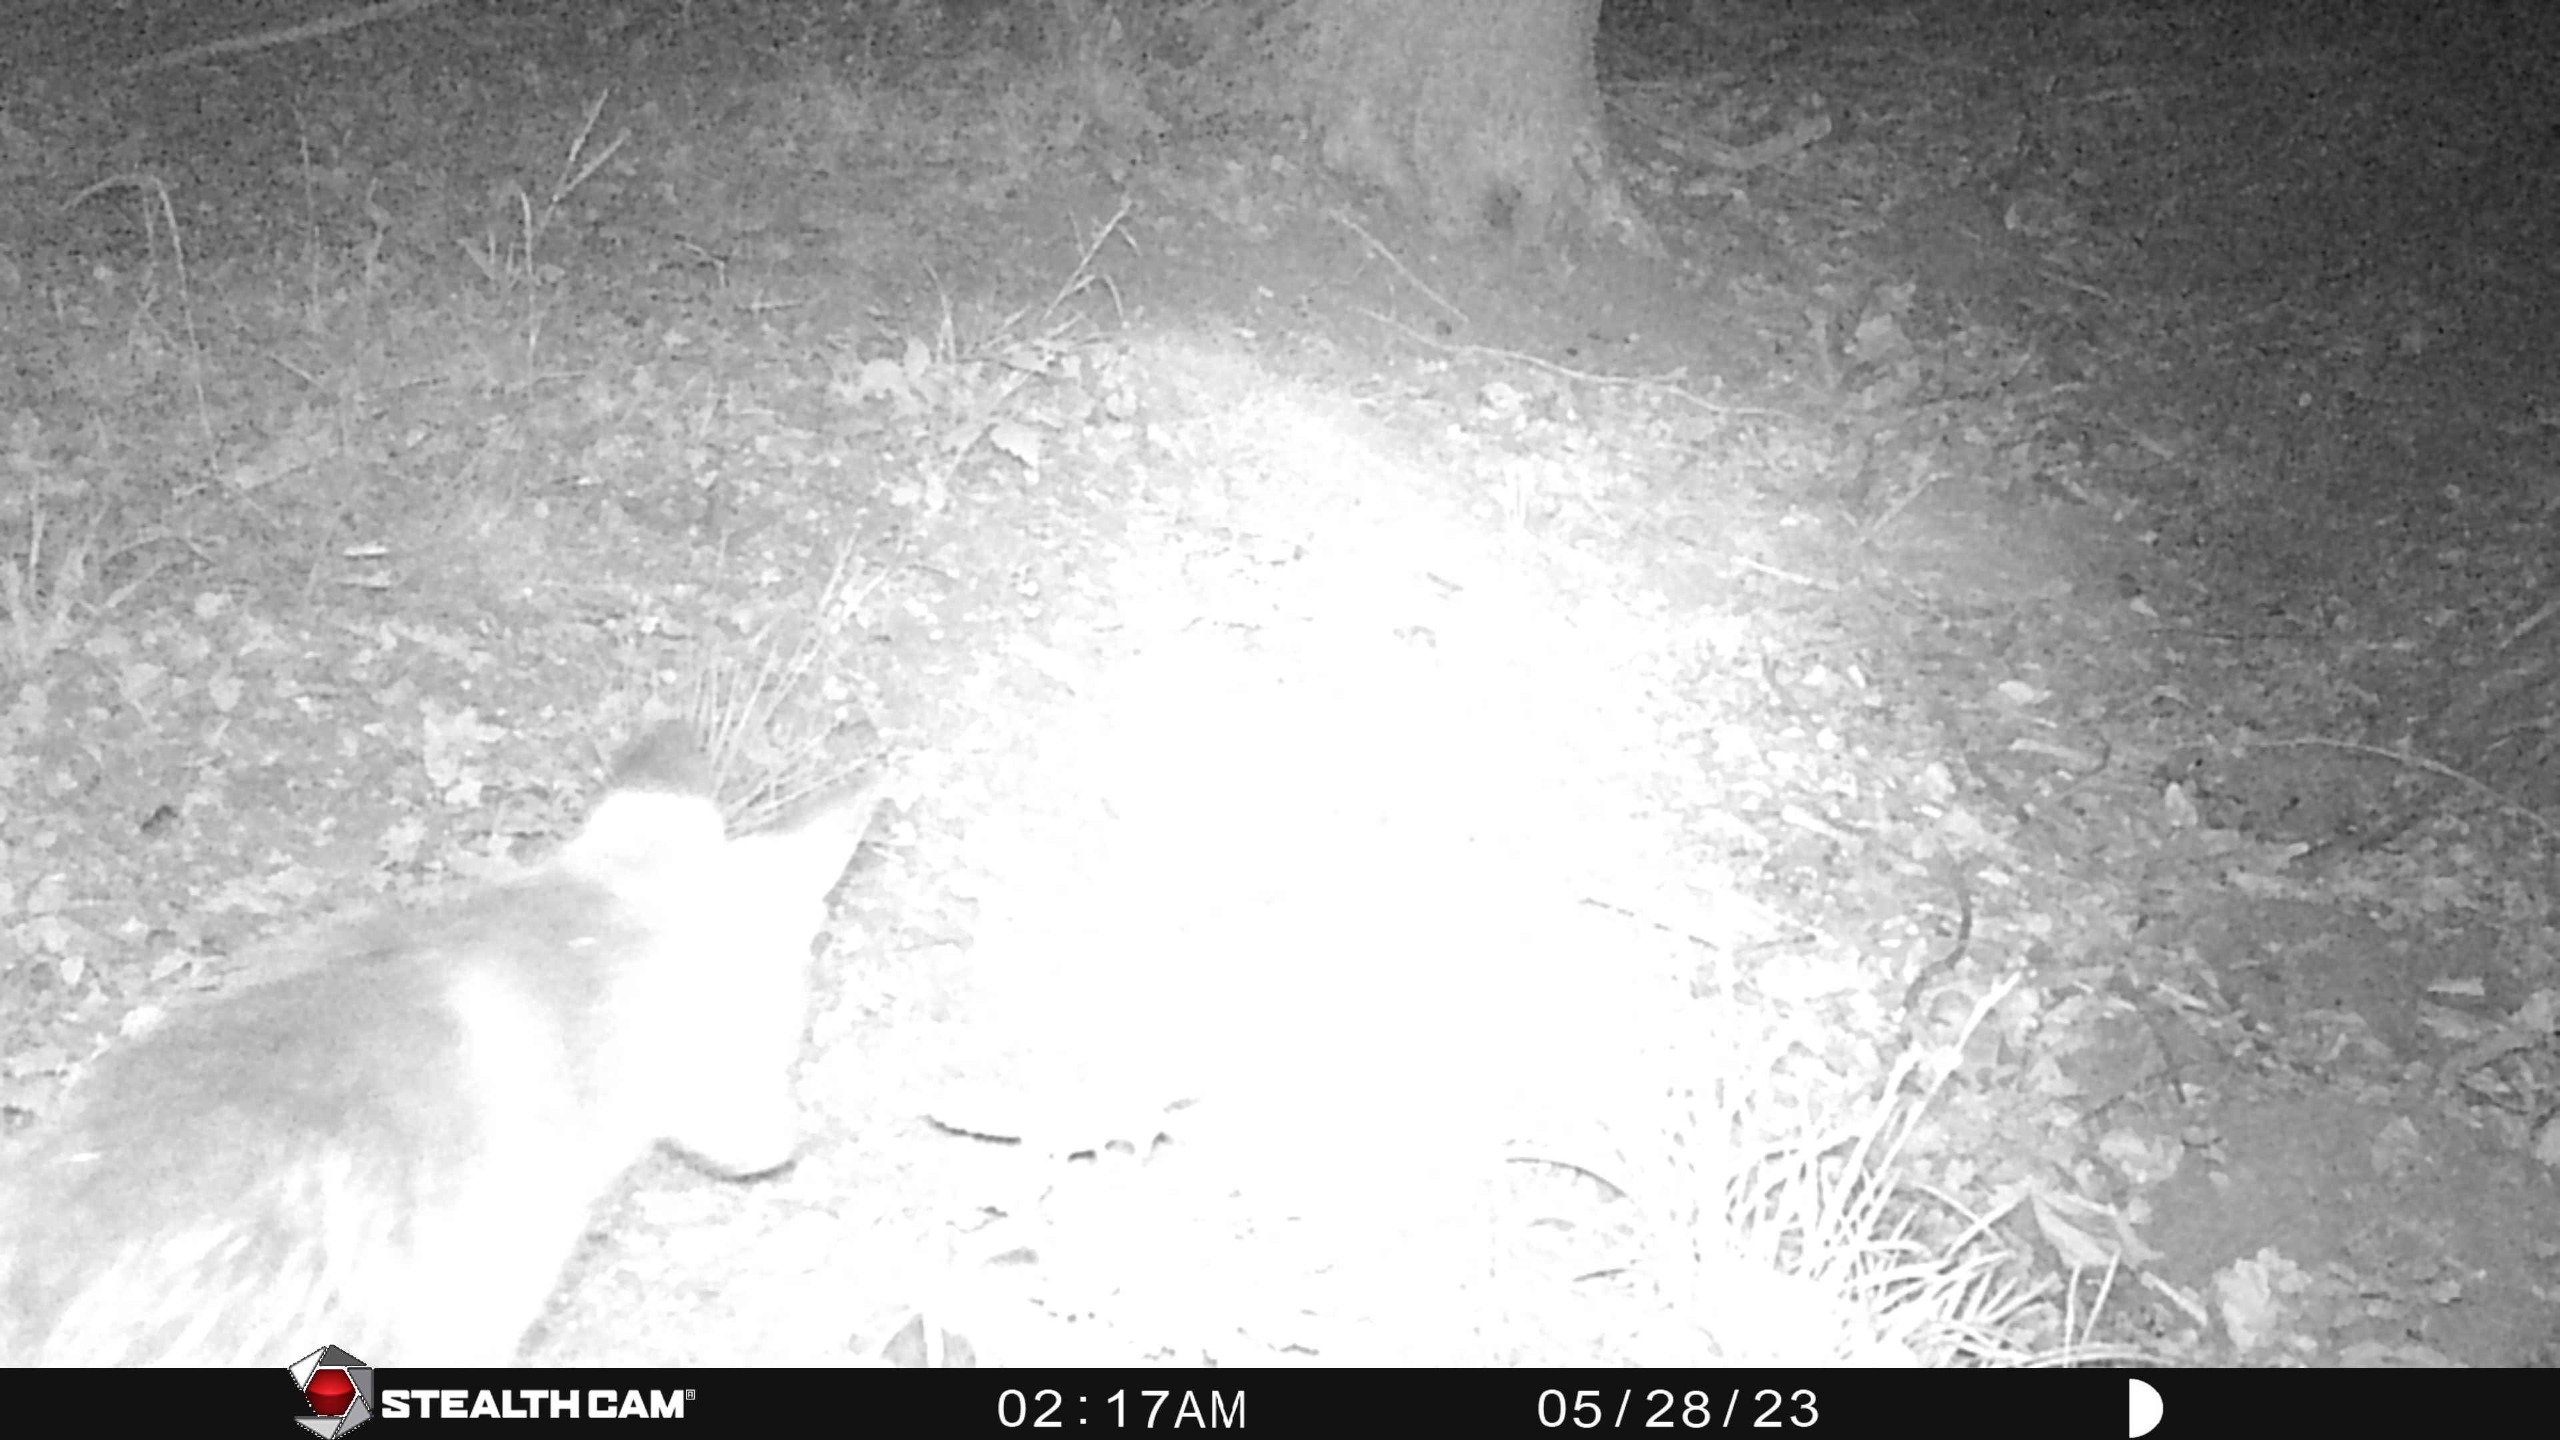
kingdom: Animalia
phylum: Chordata
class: Mammalia
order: Carnivora
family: Canidae
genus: Vulpes
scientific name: Vulpes vulpes
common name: Ræv
